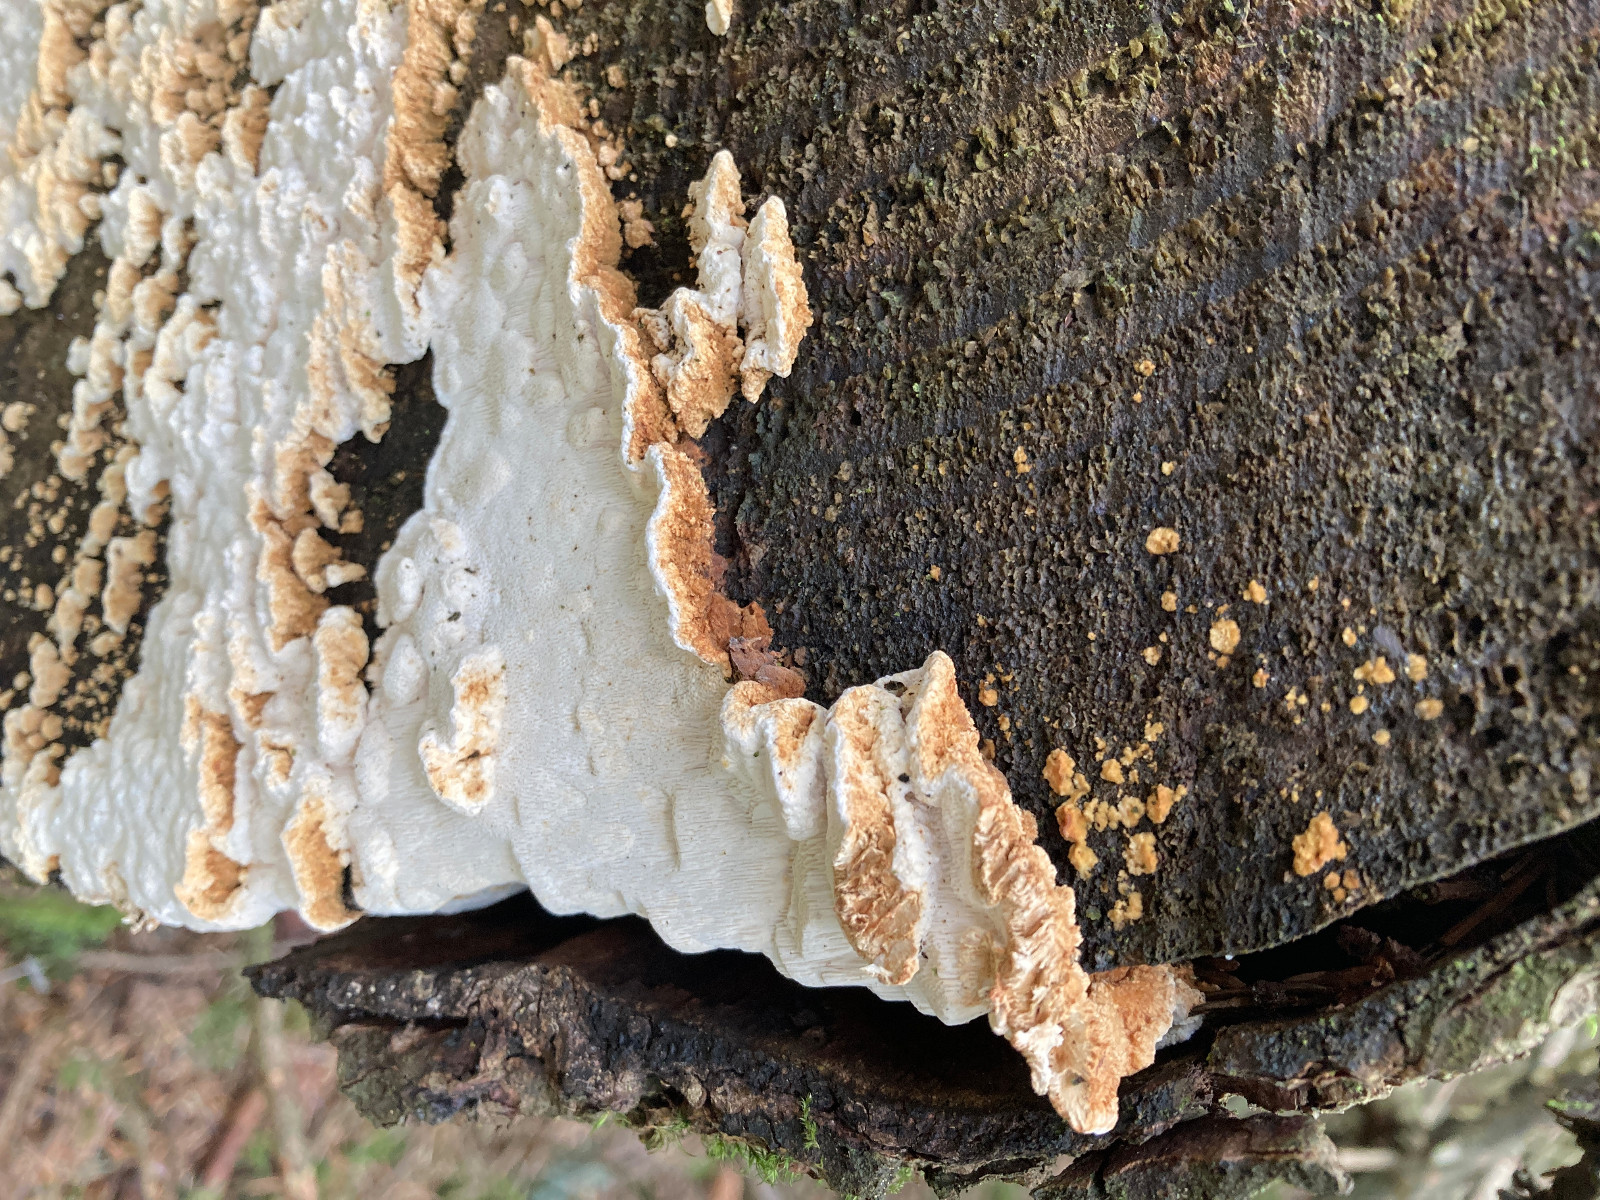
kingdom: Fungi
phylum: Basidiomycota
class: Agaricomycetes
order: Polyporales
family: Fomitopsidaceae
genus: Neoantrodia
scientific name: Neoantrodia serialis
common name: række-sejporesvamp
